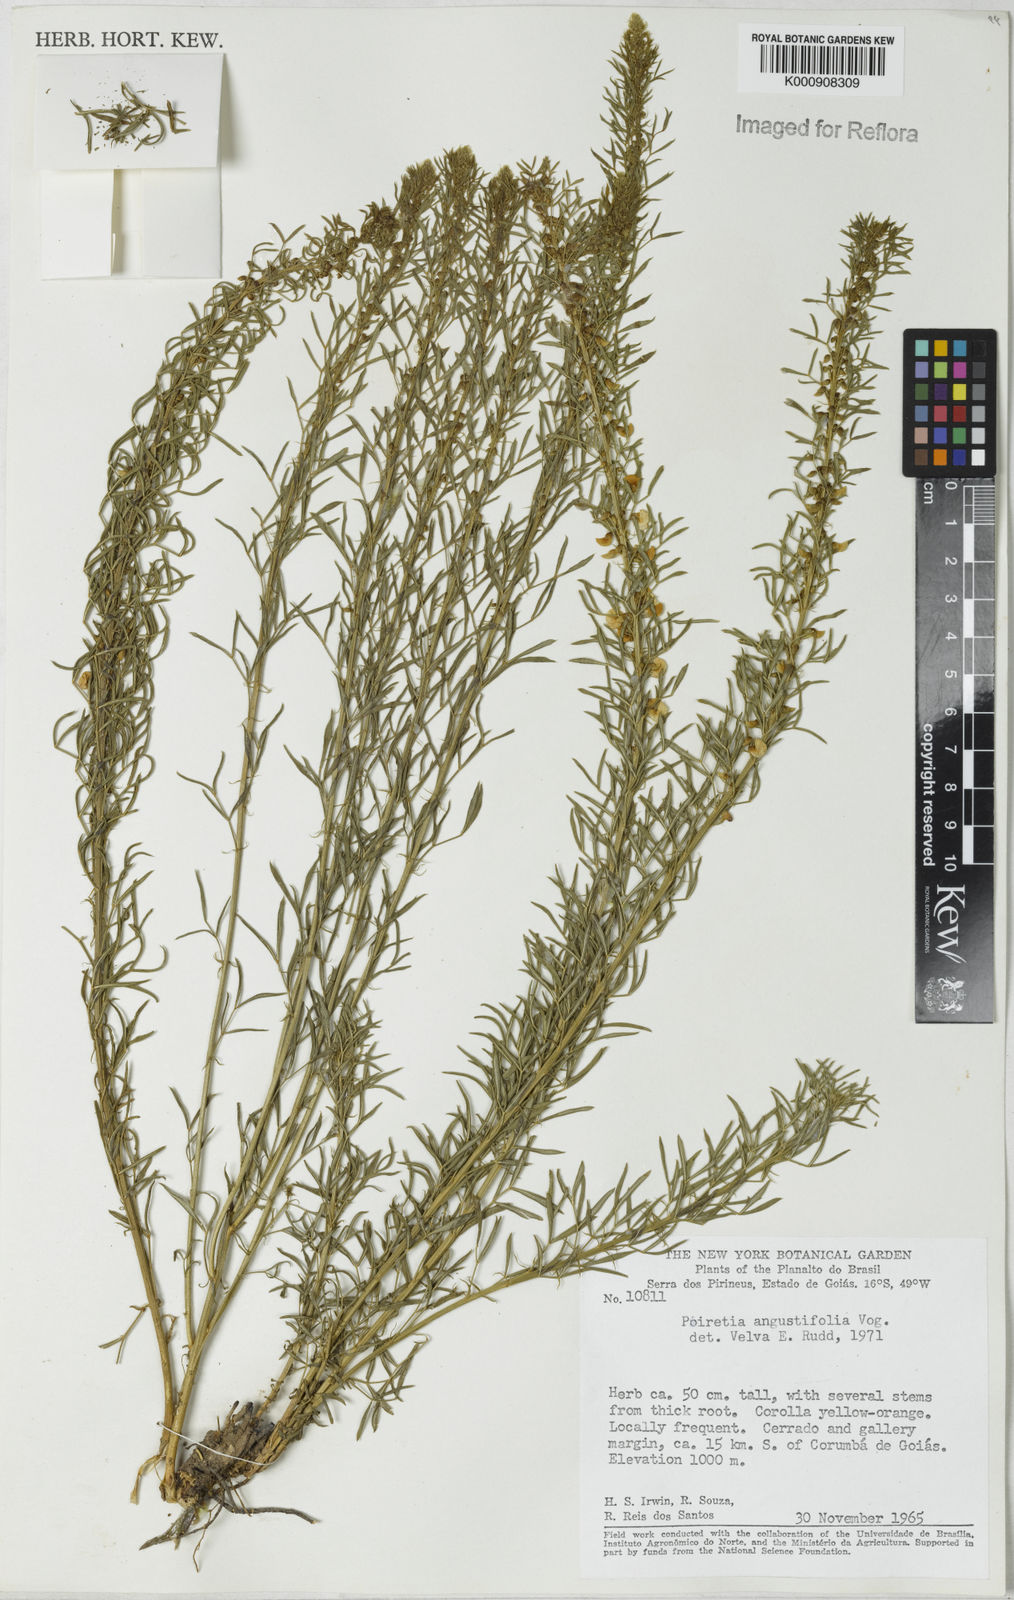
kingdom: Plantae
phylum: Tracheophyta
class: Magnoliopsida
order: Fabales
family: Fabaceae
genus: Poiretia
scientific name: Poiretia angustifolia
